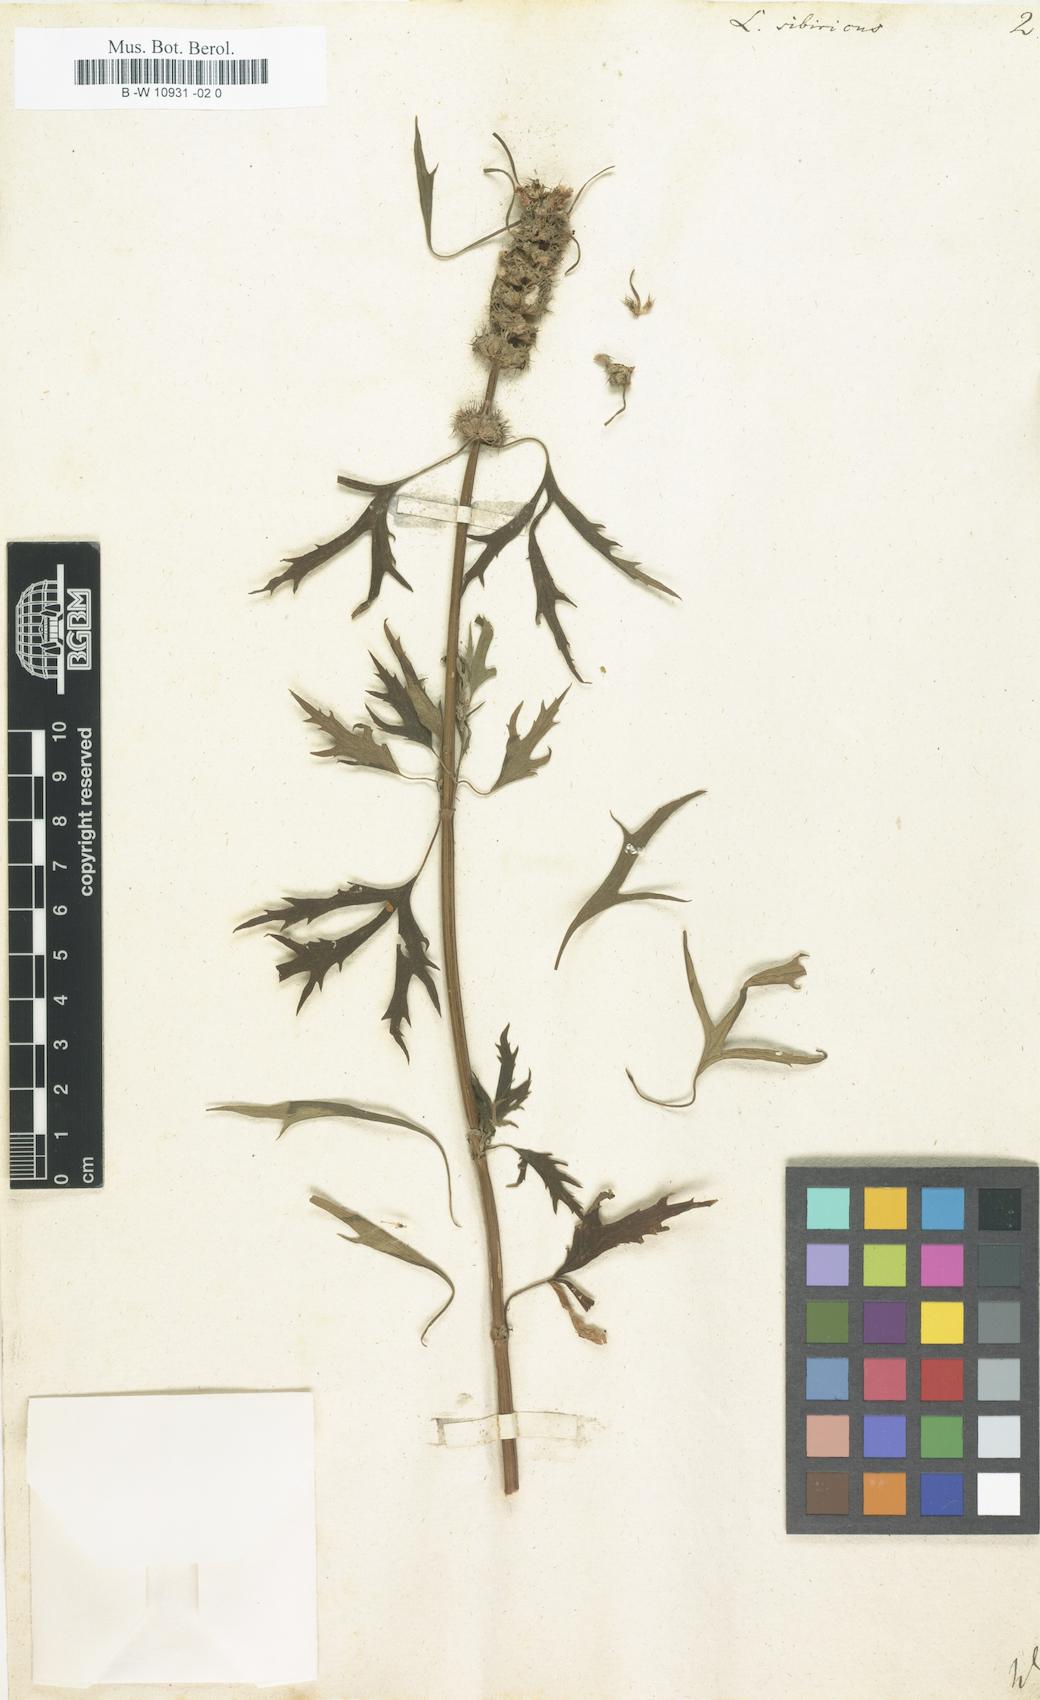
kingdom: Plantae
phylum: Tracheophyta
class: Magnoliopsida
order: Lamiales
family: Lamiaceae
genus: Leonurus
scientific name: Leonurus sibiricus
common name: Honeyweed
